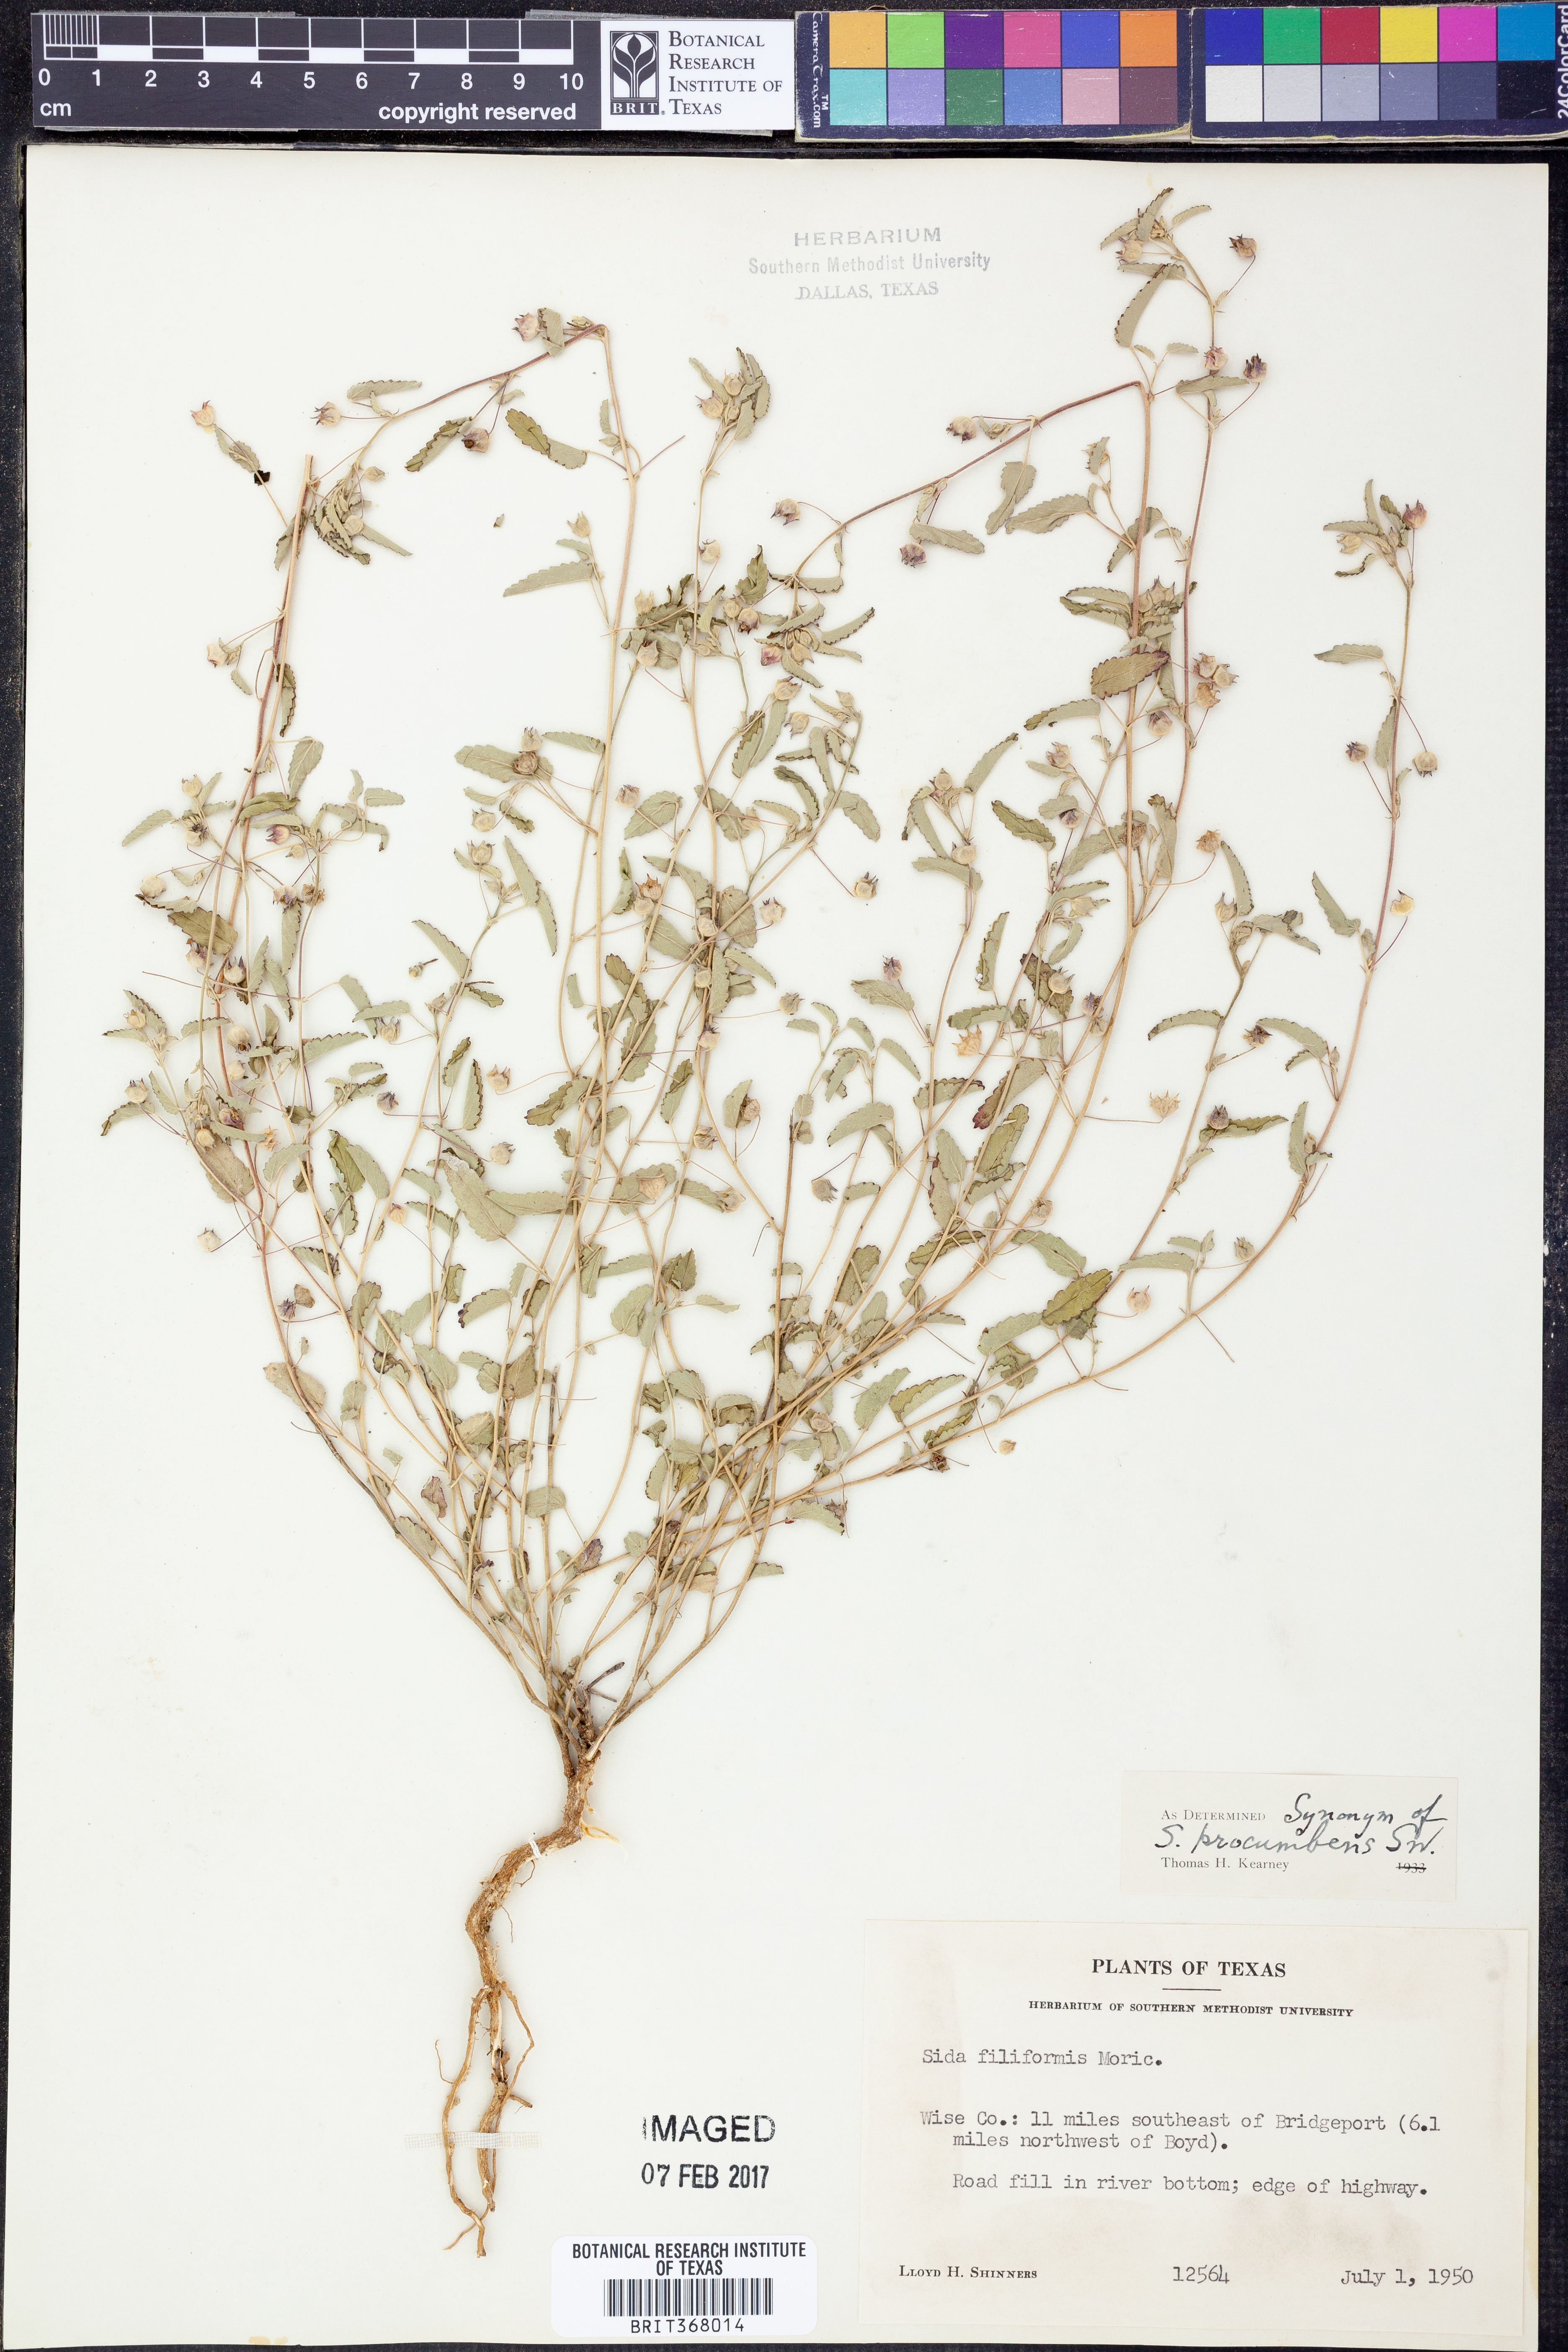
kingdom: Plantae
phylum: Tracheophyta
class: Magnoliopsida
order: Malvales
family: Malvaceae
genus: Sida
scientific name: Sida abutilifolia
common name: Spreading fanpetals
